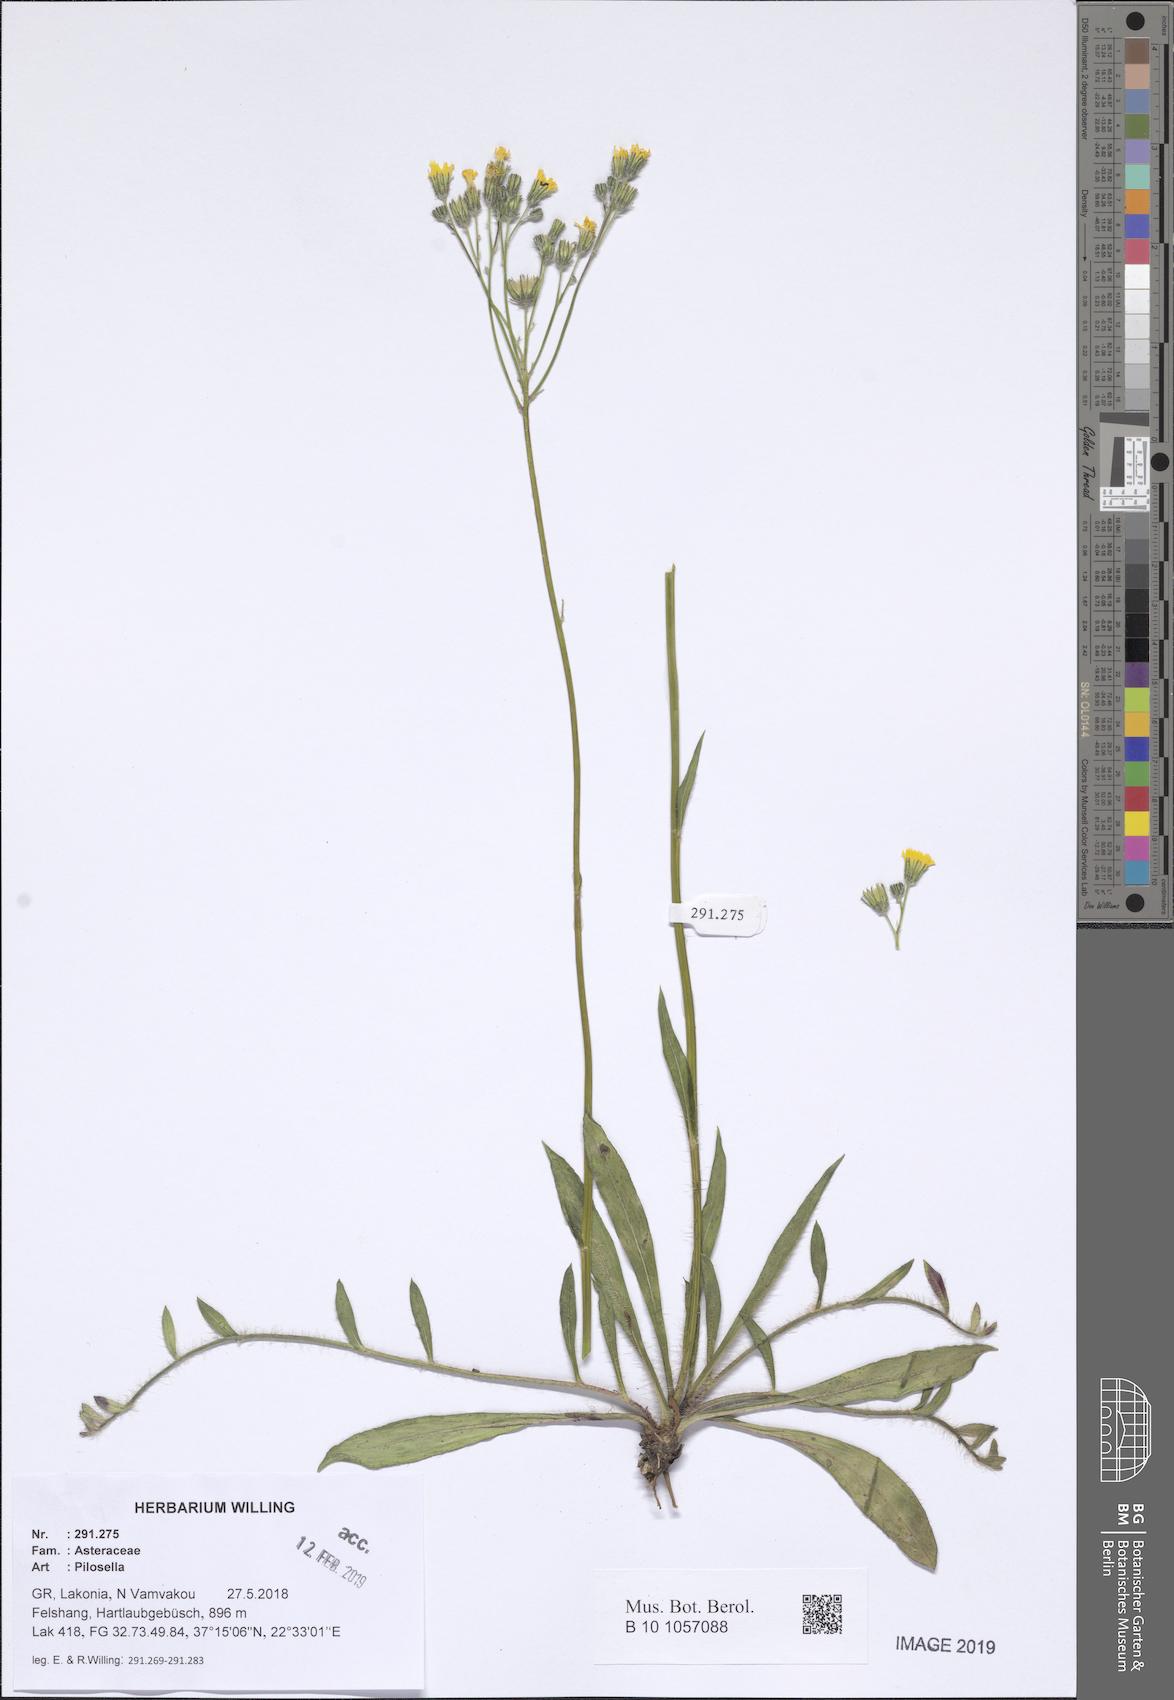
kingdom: Plantae
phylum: Tracheophyta
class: Magnoliopsida
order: Asterales
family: Asteraceae
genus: Pilosella
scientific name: Pilosella
